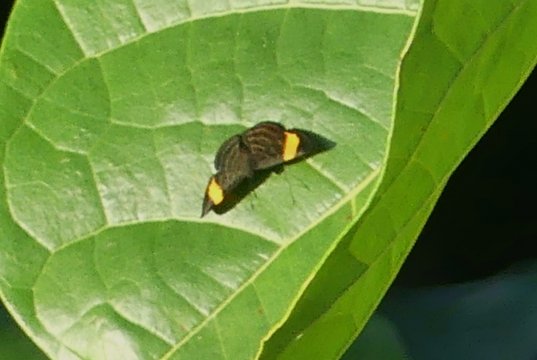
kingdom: Animalia
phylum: Arthropoda
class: Insecta
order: Lepidoptera
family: Riodinidae
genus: Pirascca
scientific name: Pirascca tyriotes
